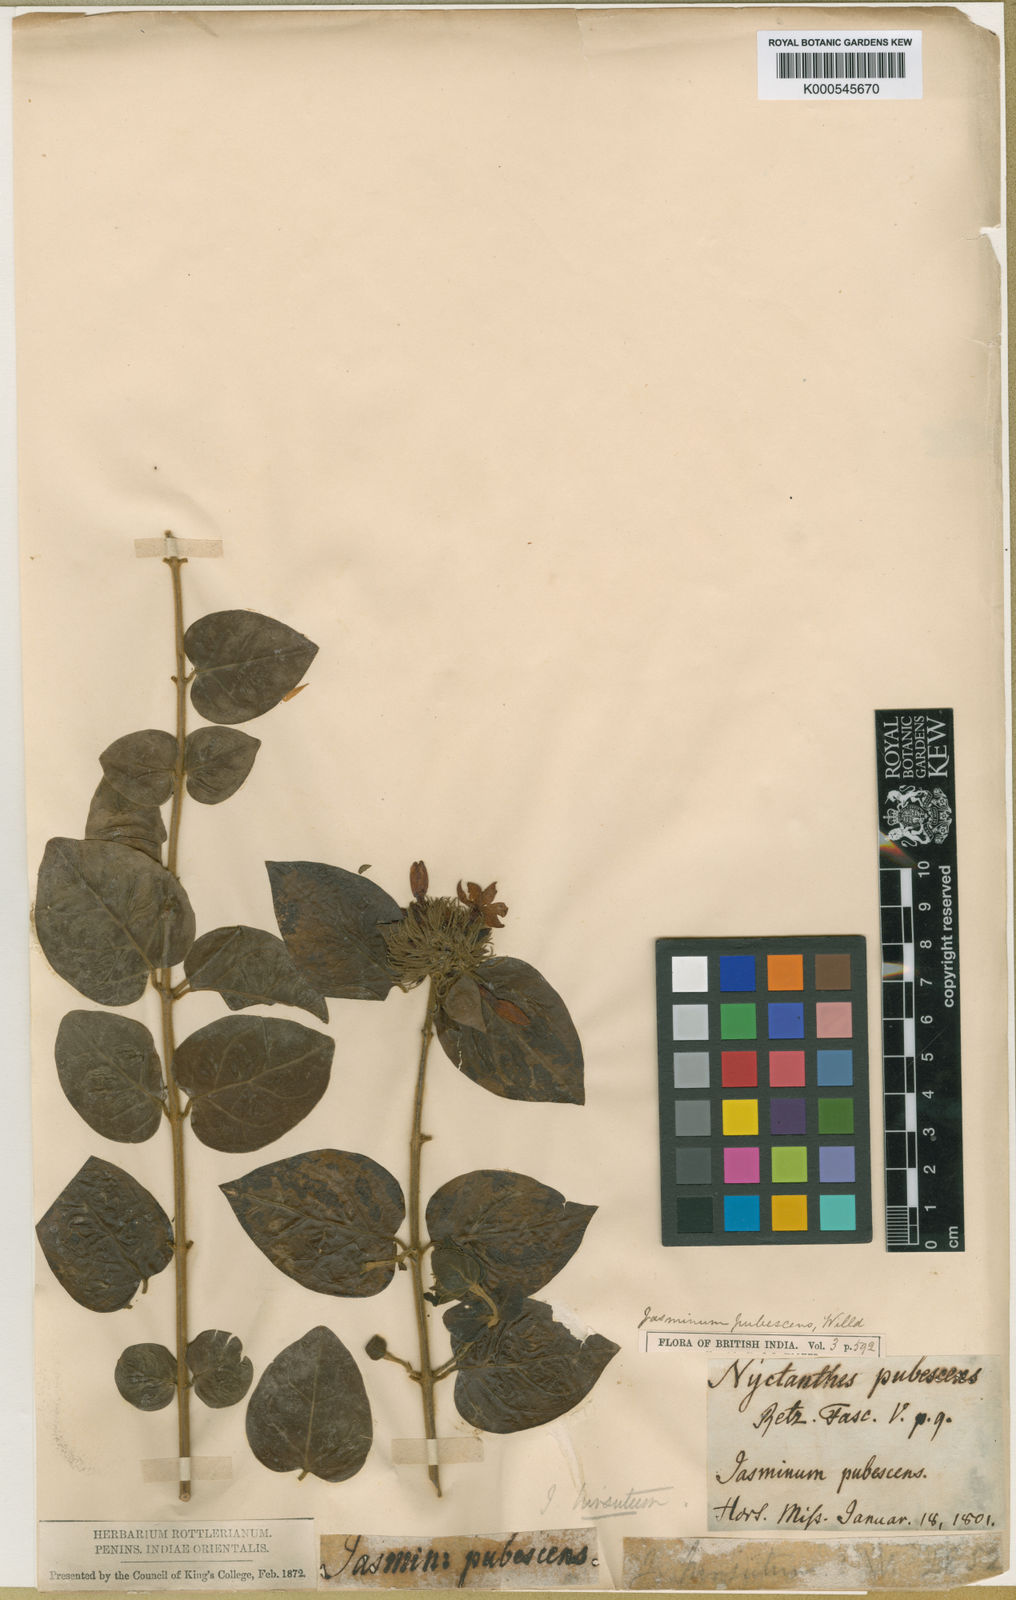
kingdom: Plantae
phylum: Tracheophyta
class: Magnoliopsida
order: Lamiales
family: Oleaceae
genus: Jasminum
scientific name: Jasminum multiflorum
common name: Star jasmine
